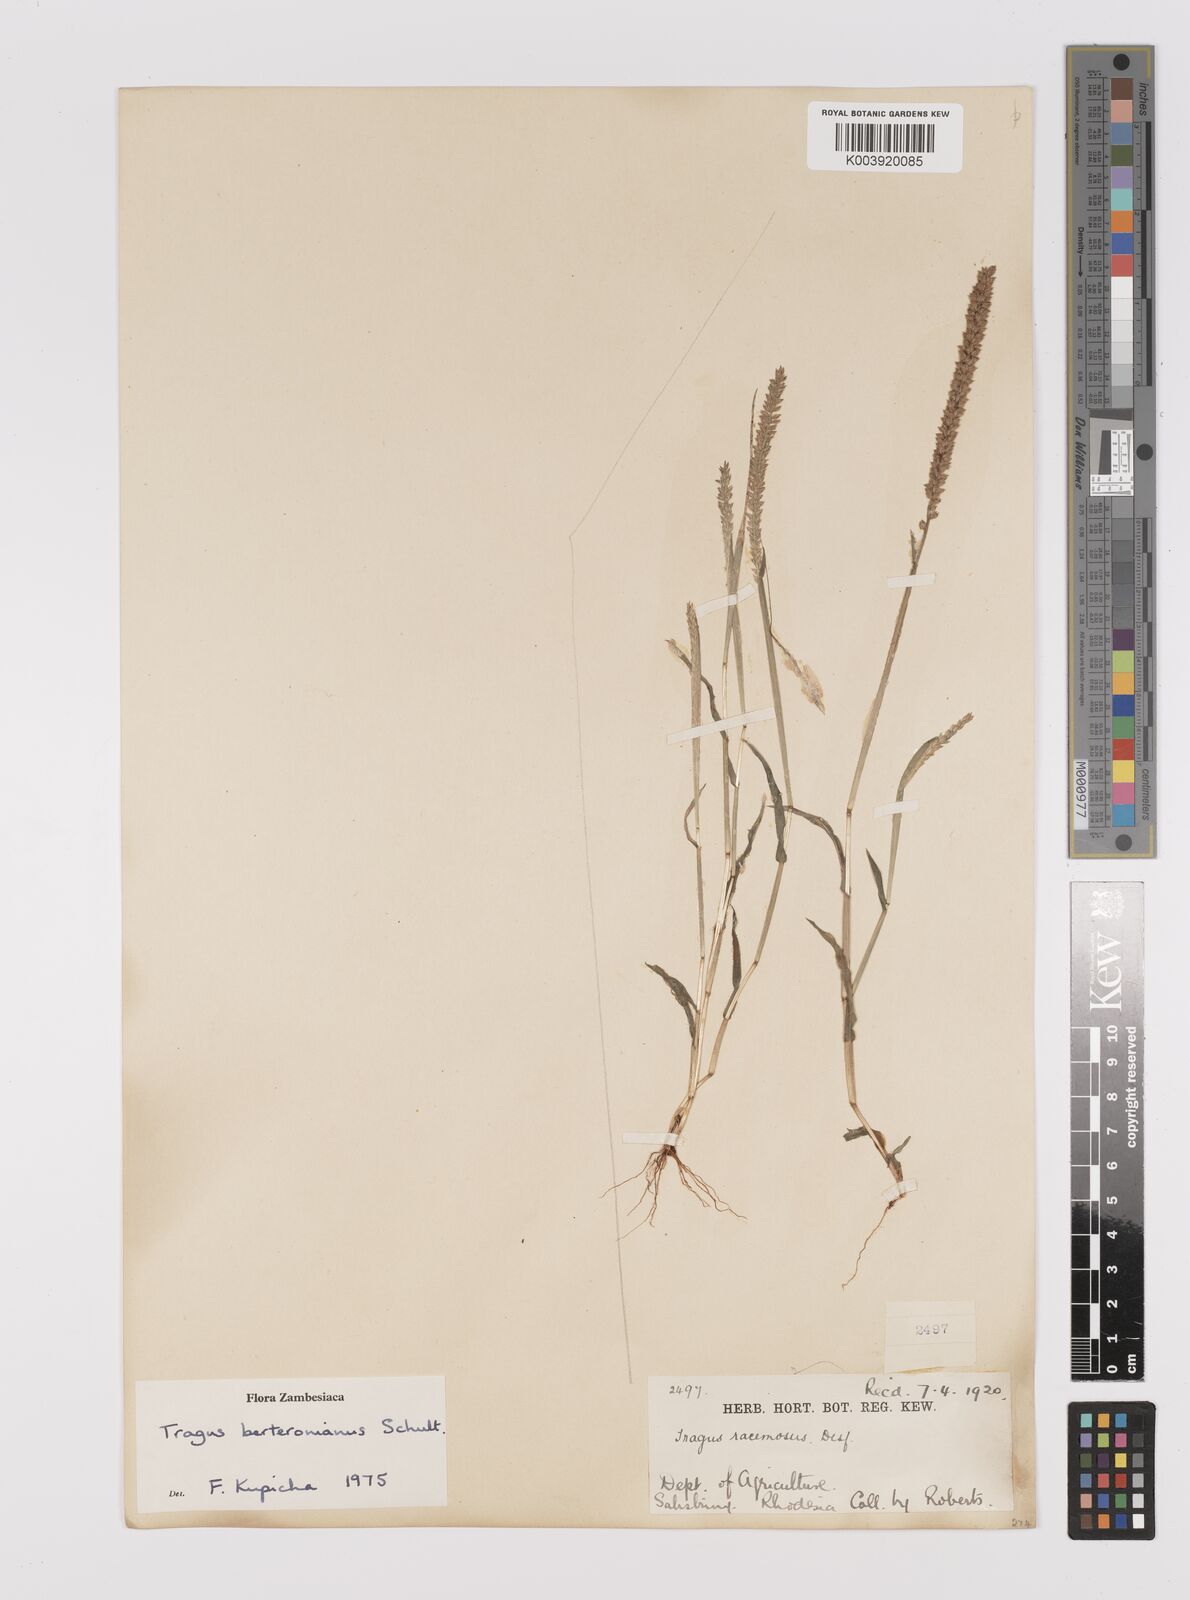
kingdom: Plantae
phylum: Tracheophyta
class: Liliopsida
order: Poales
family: Poaceae
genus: Tragus
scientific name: Tragus berteronianus
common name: African bur-grass
